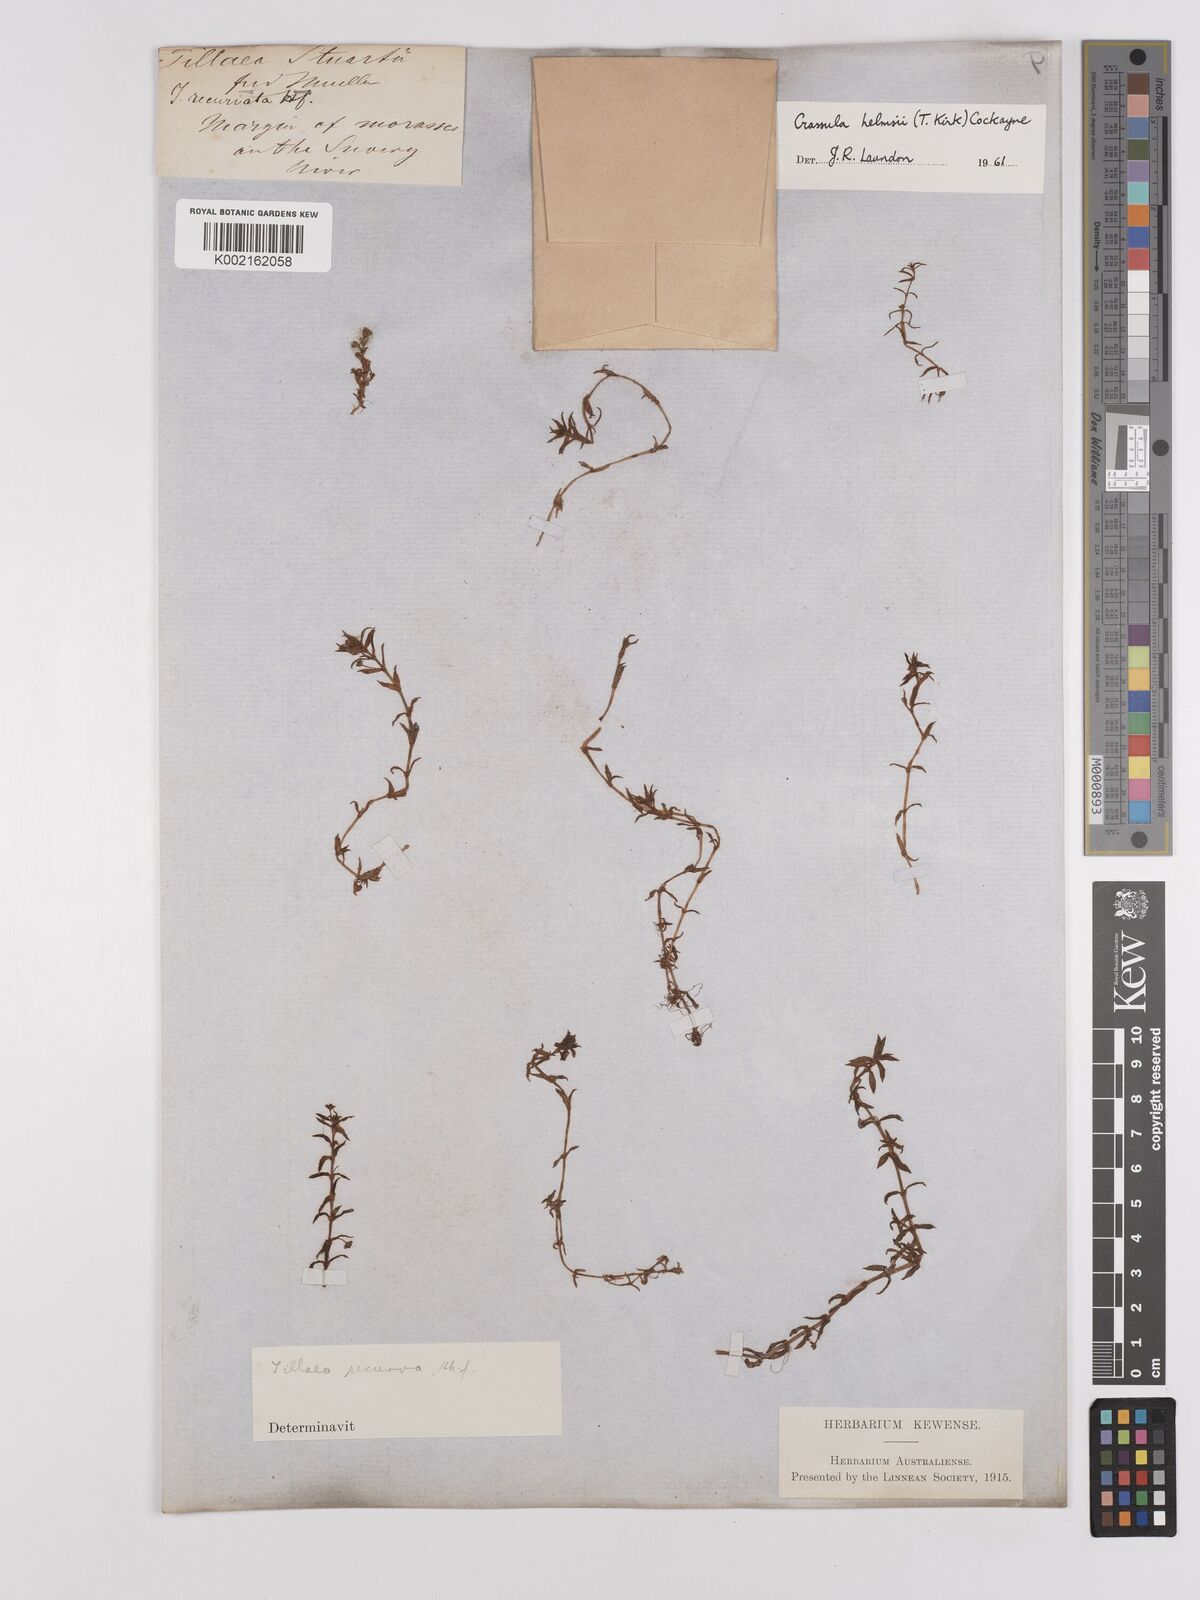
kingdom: Plantae
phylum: Tracheophyta
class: Magnoliopsida
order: Saxifragales
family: Crassulaceae
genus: Crassula
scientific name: Crassula helmsii
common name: New zealand pigmyweed
